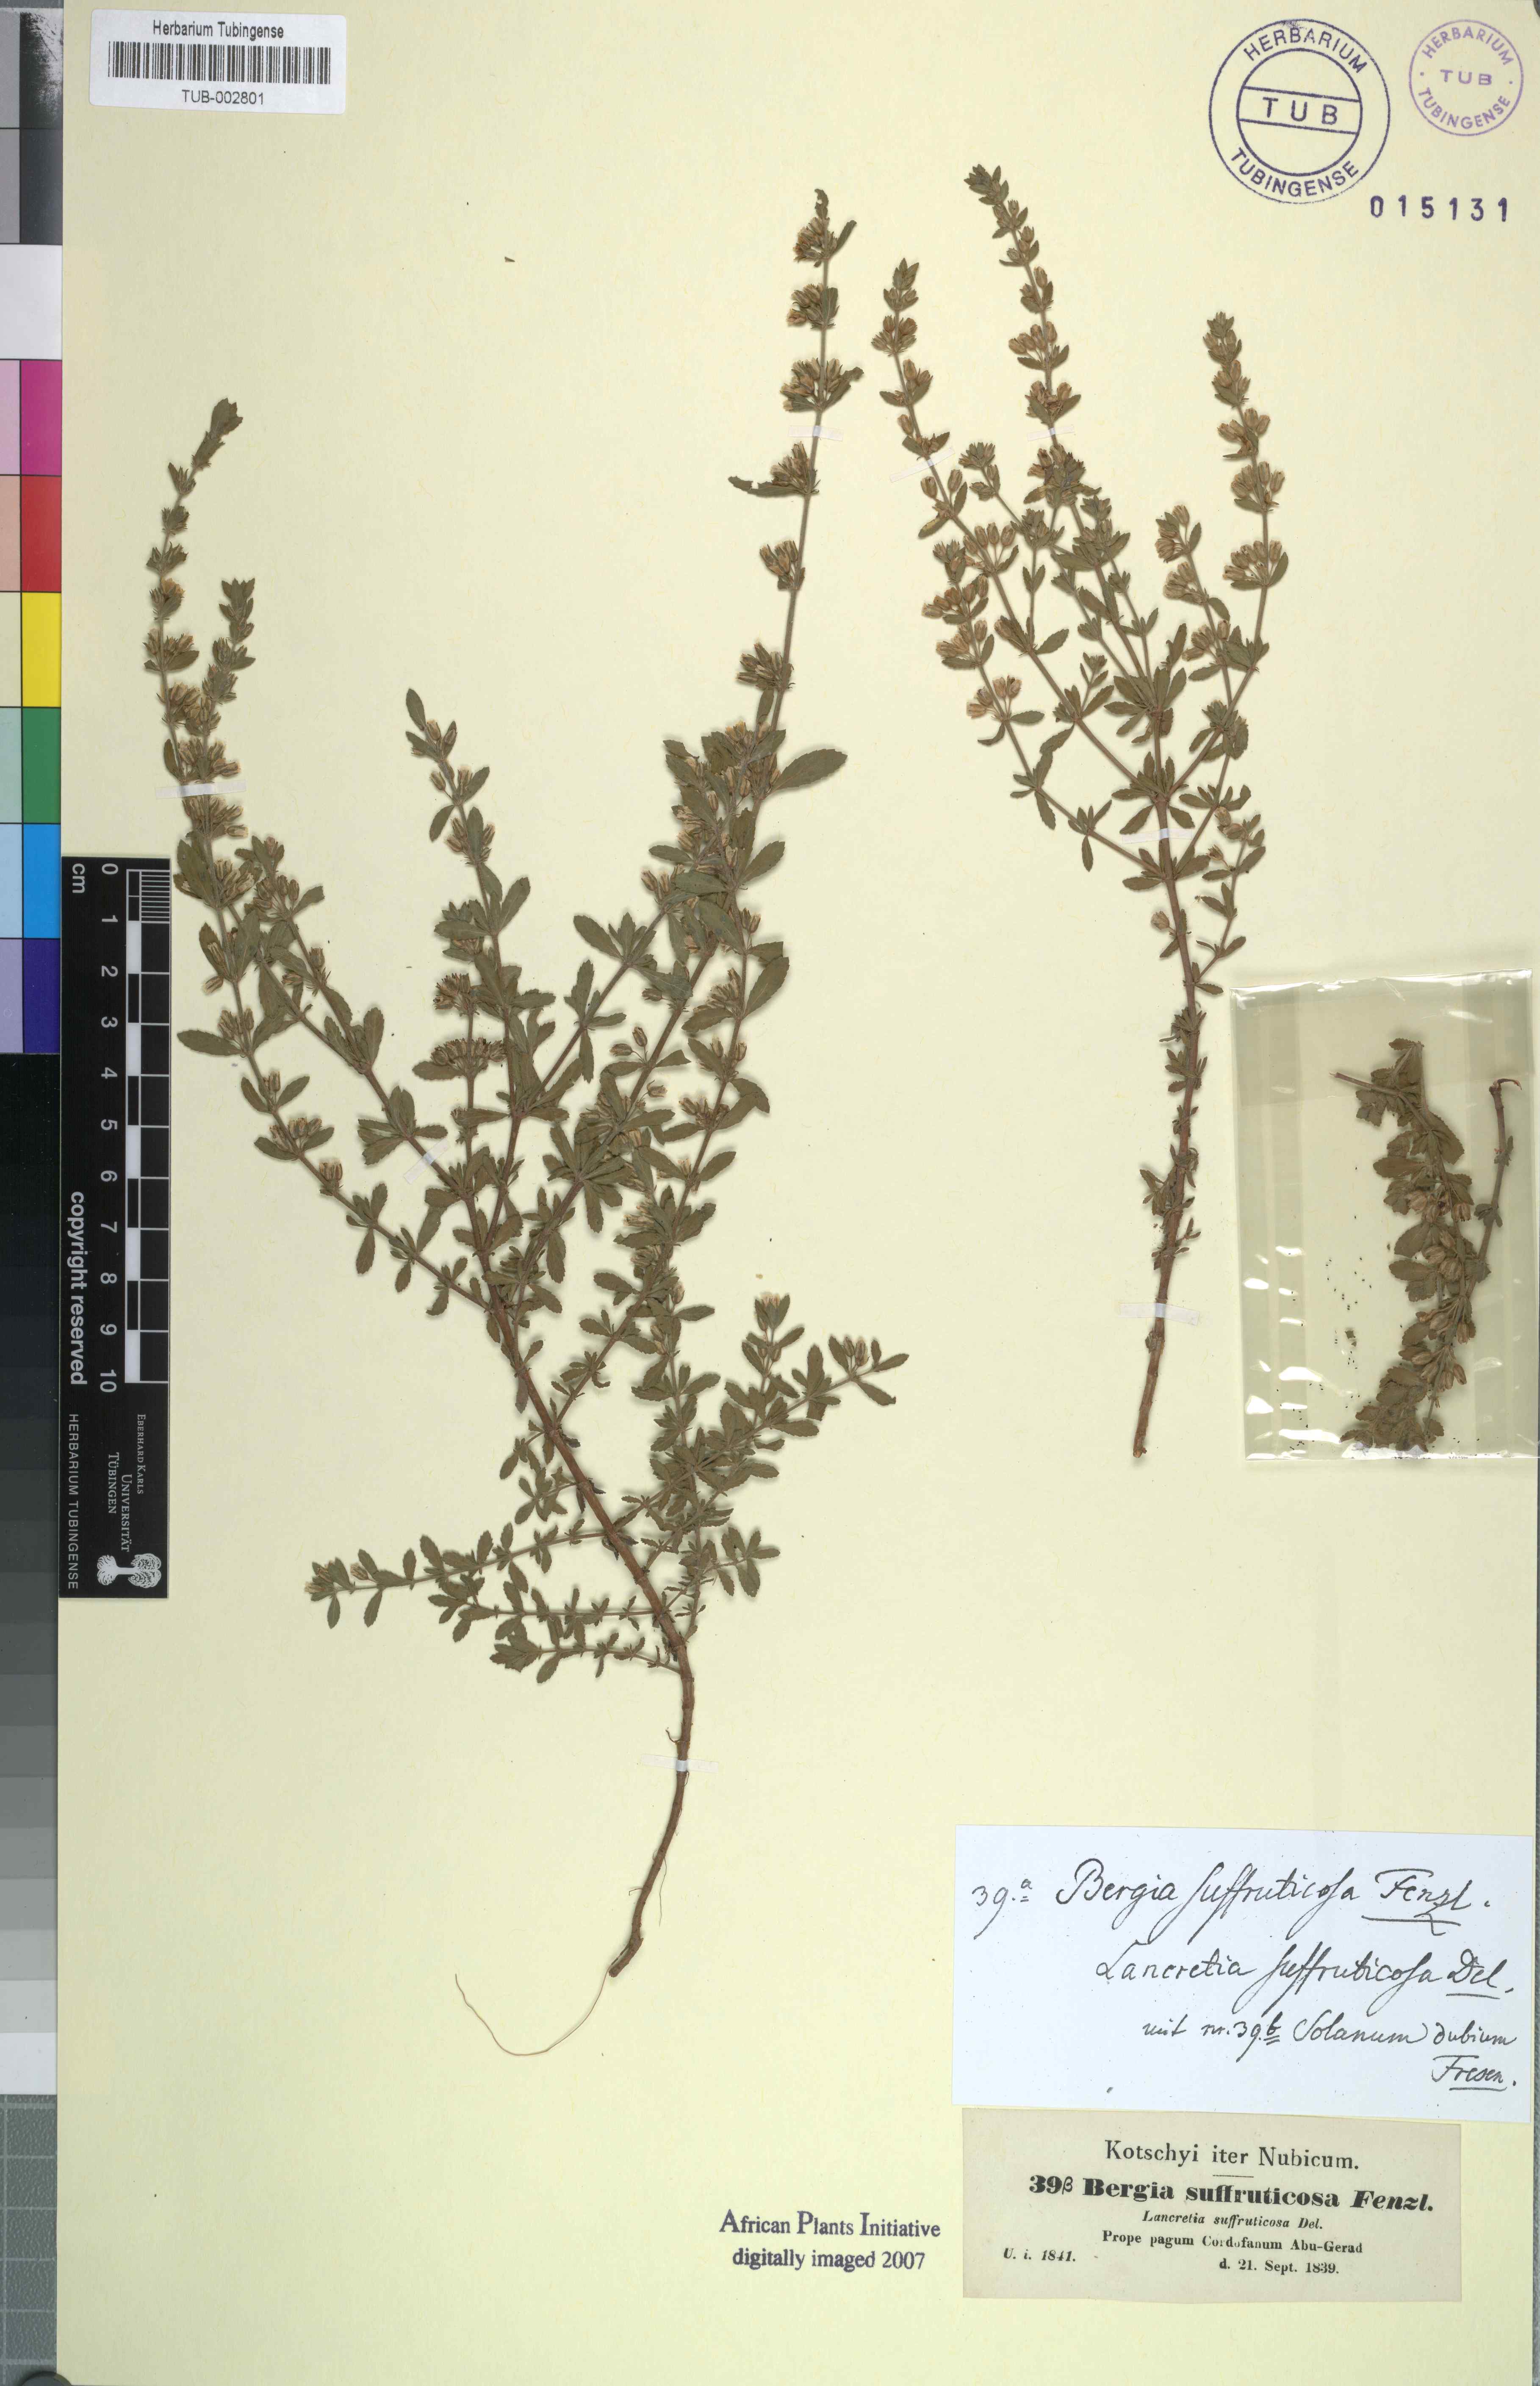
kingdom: Plantae
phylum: Tracheophyta
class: Magnoliopsida
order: Malpighiales
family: Elatinaceae
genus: Bergia
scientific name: Bergia suffruticosa
